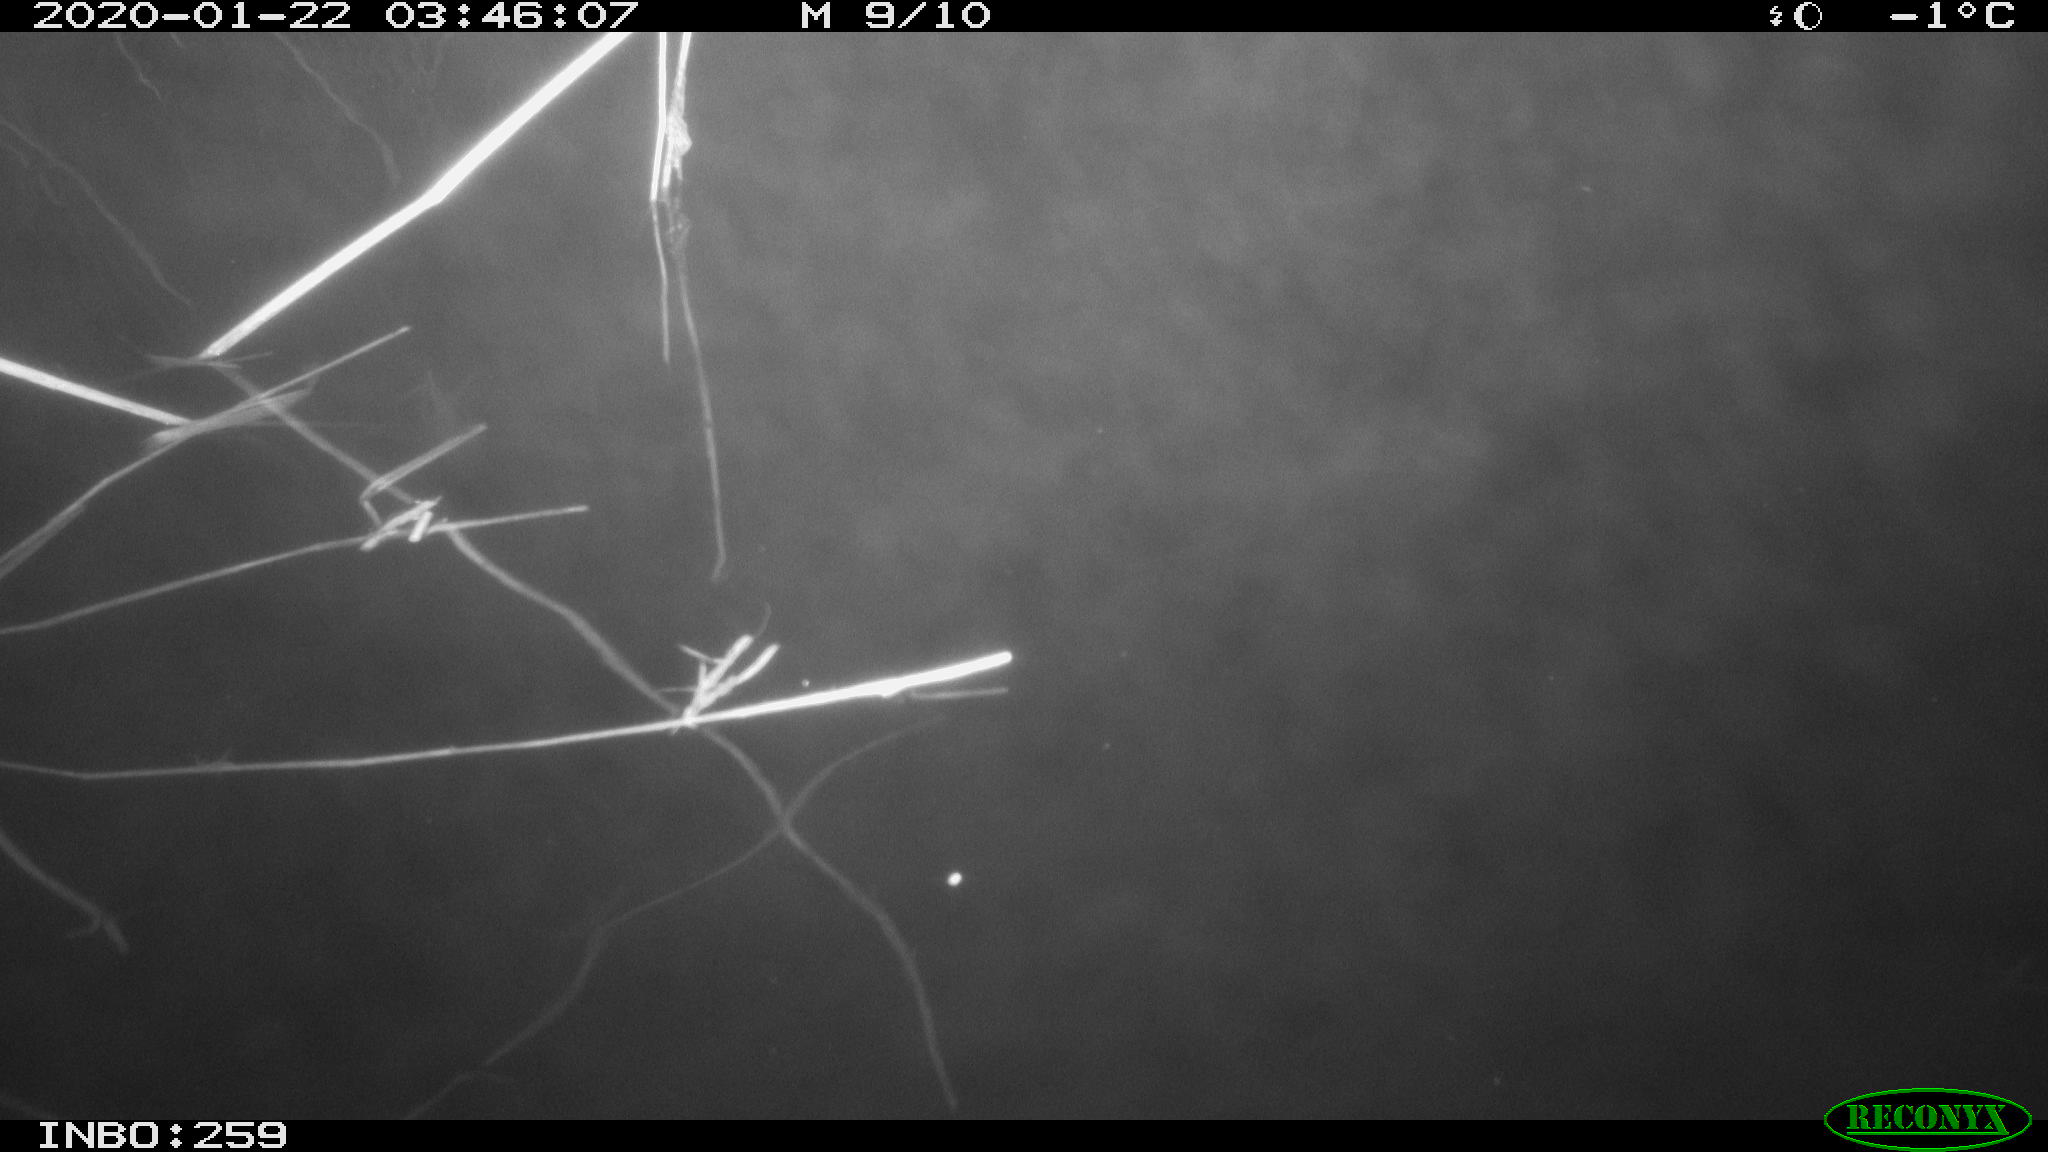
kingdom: Animalia
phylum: Chordata
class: Mammalia
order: Rodentia
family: Cricetidae
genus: Ondatra
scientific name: Ondatra zibethicus
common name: Muskrat
